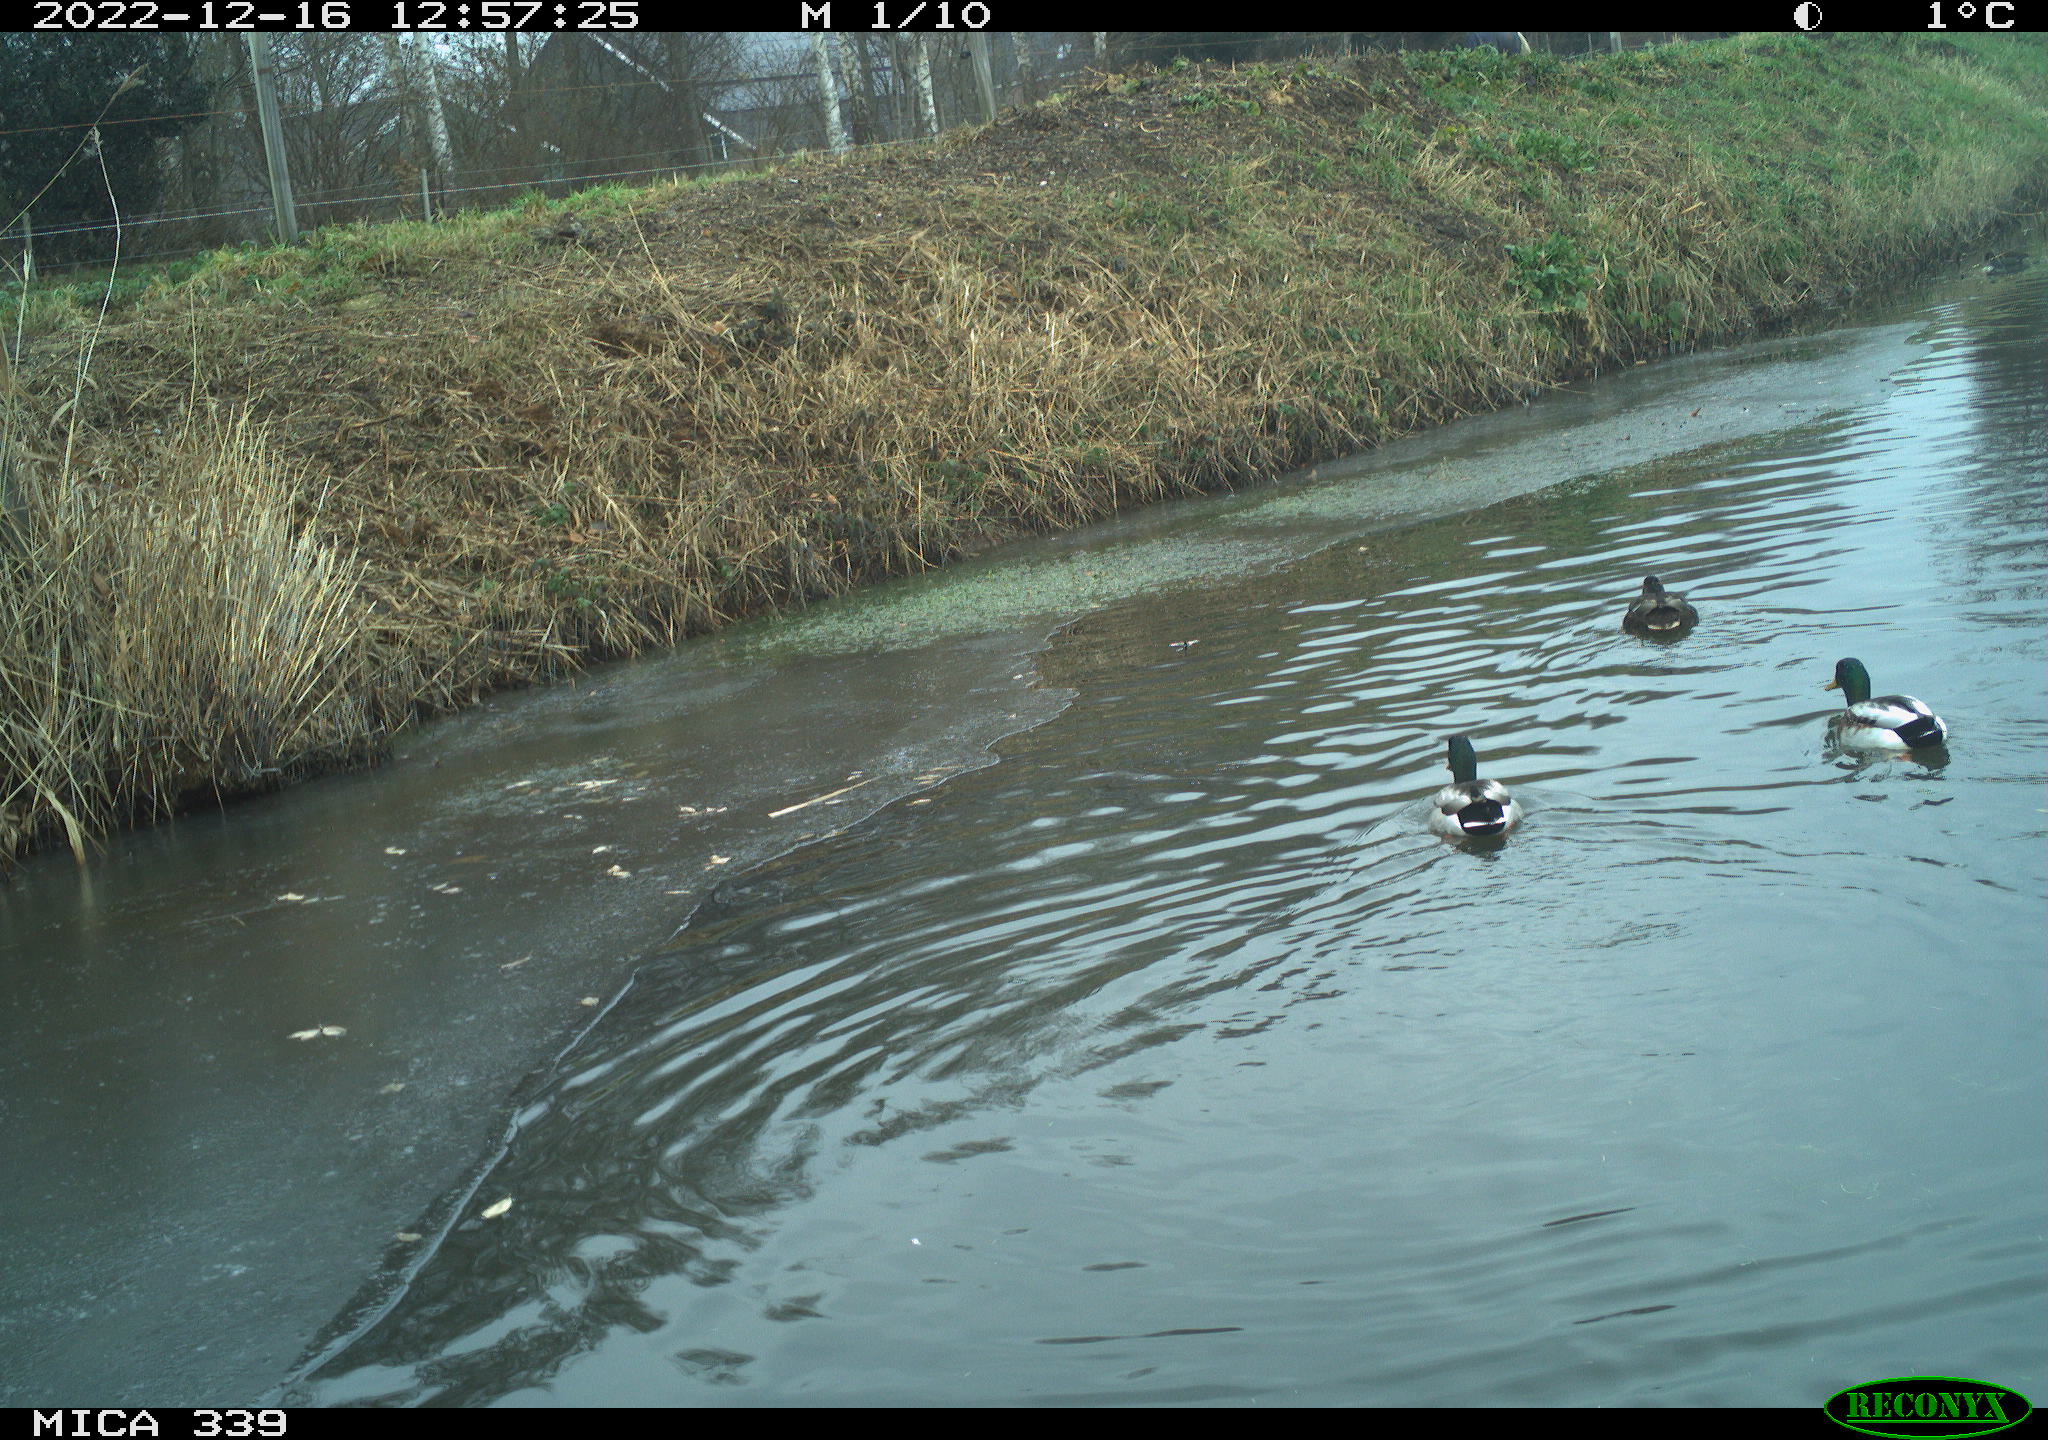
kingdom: Animalia
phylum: Chordata
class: Aves
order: Anseriformes
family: Anatidae
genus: Anas
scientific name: Anas
